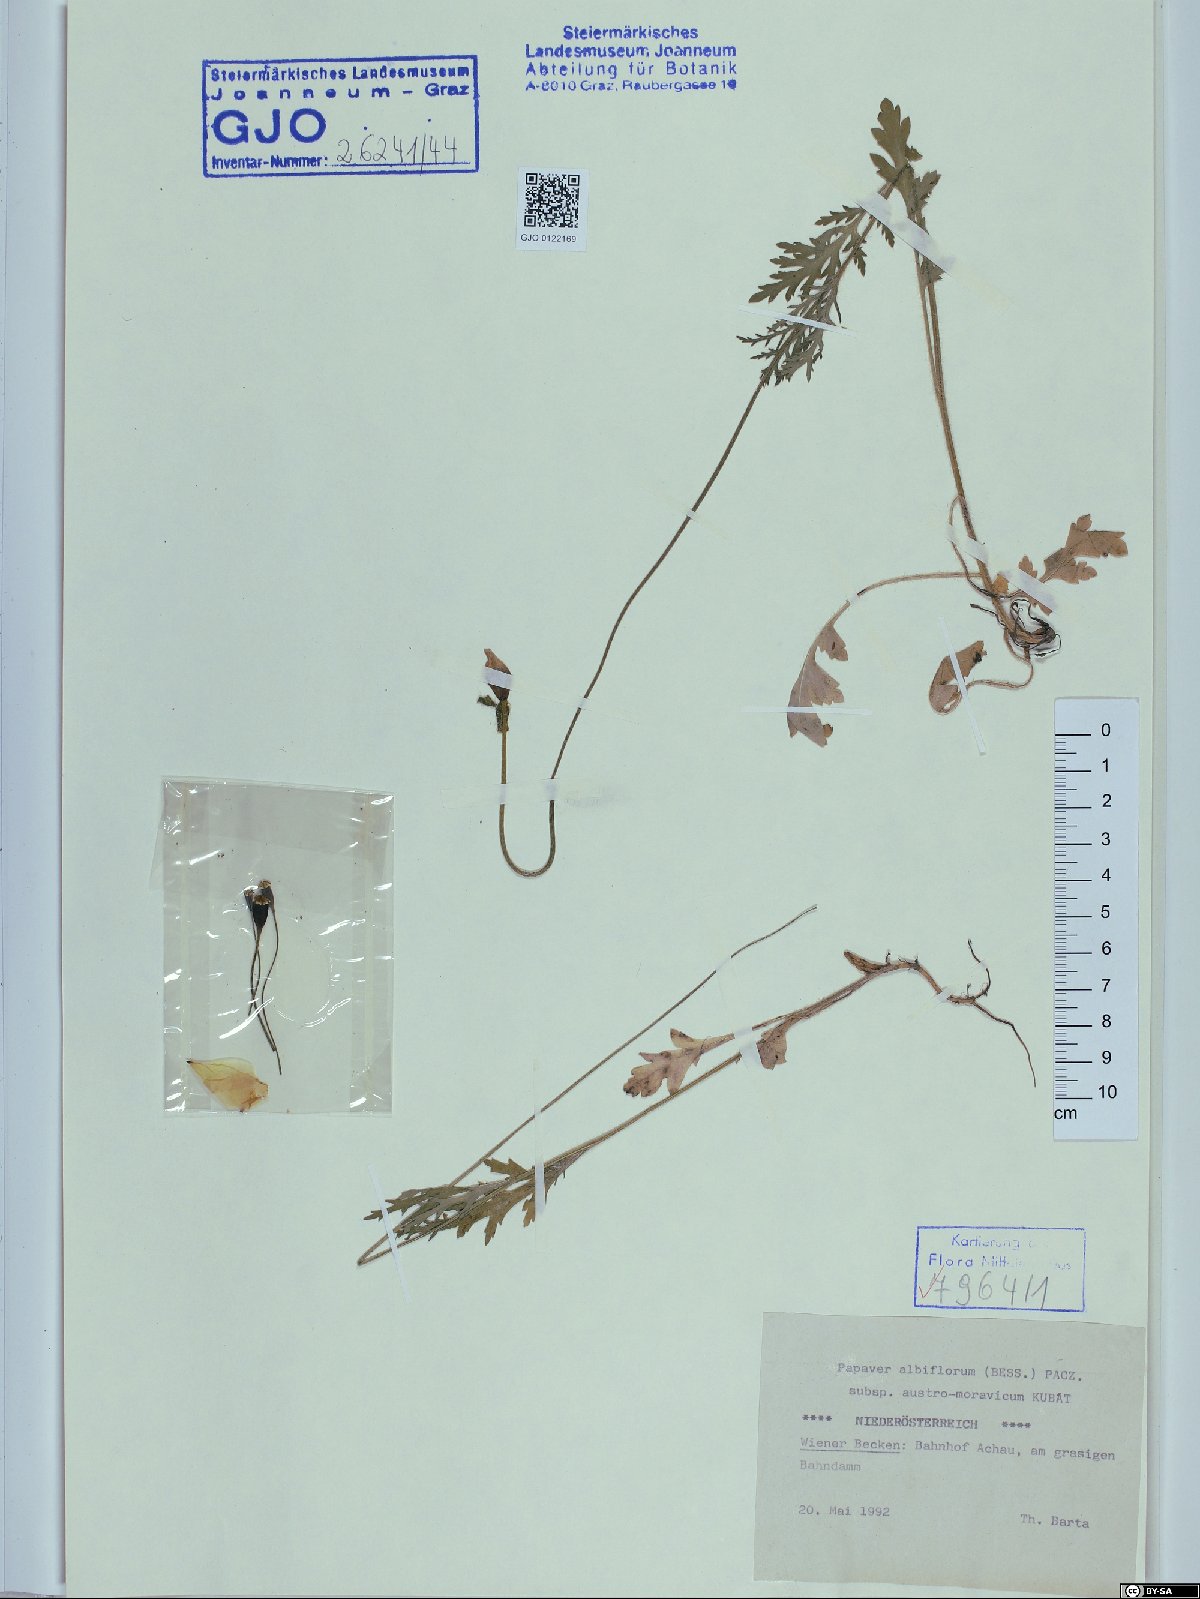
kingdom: Plantae
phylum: Tracheophyta
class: Magnoliopsida
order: Ranunculales
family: Papaveraceae
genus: Papaver
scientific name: Papaver dubium
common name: Long-headed poppy
